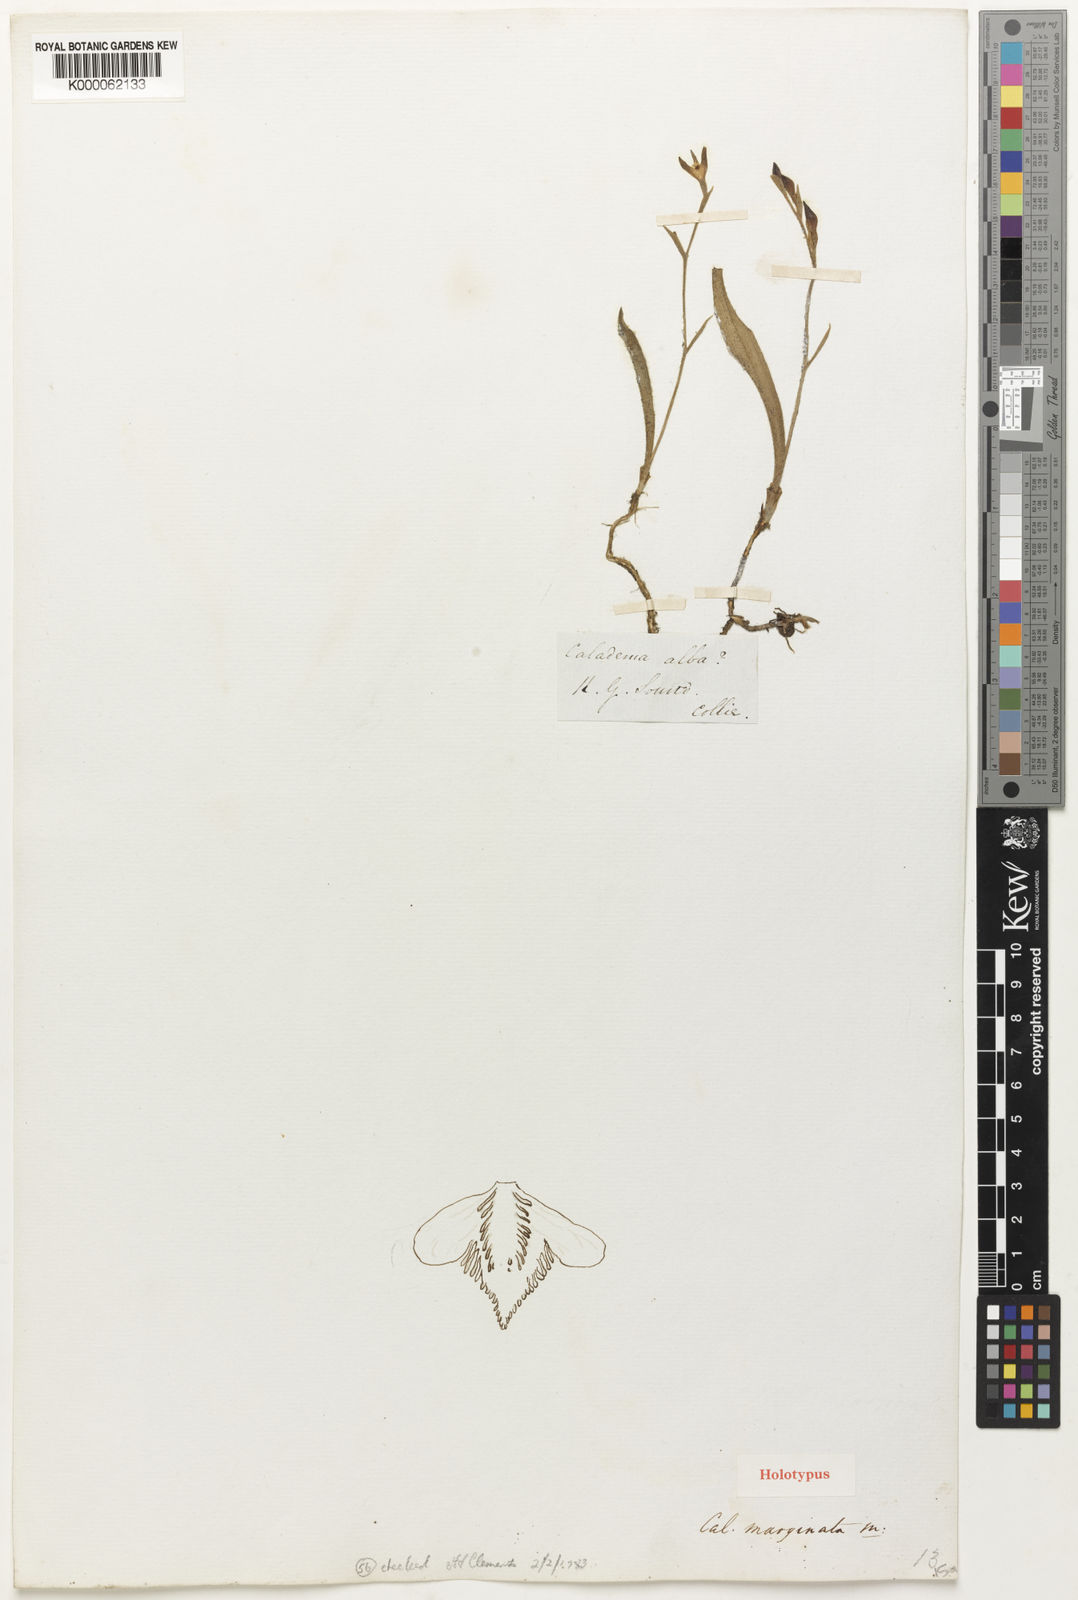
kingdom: Plantae
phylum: Tracheophyta
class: Liliopsida
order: Asparagales
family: Orchidaceae
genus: Caladenia
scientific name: Caladenia marginata
